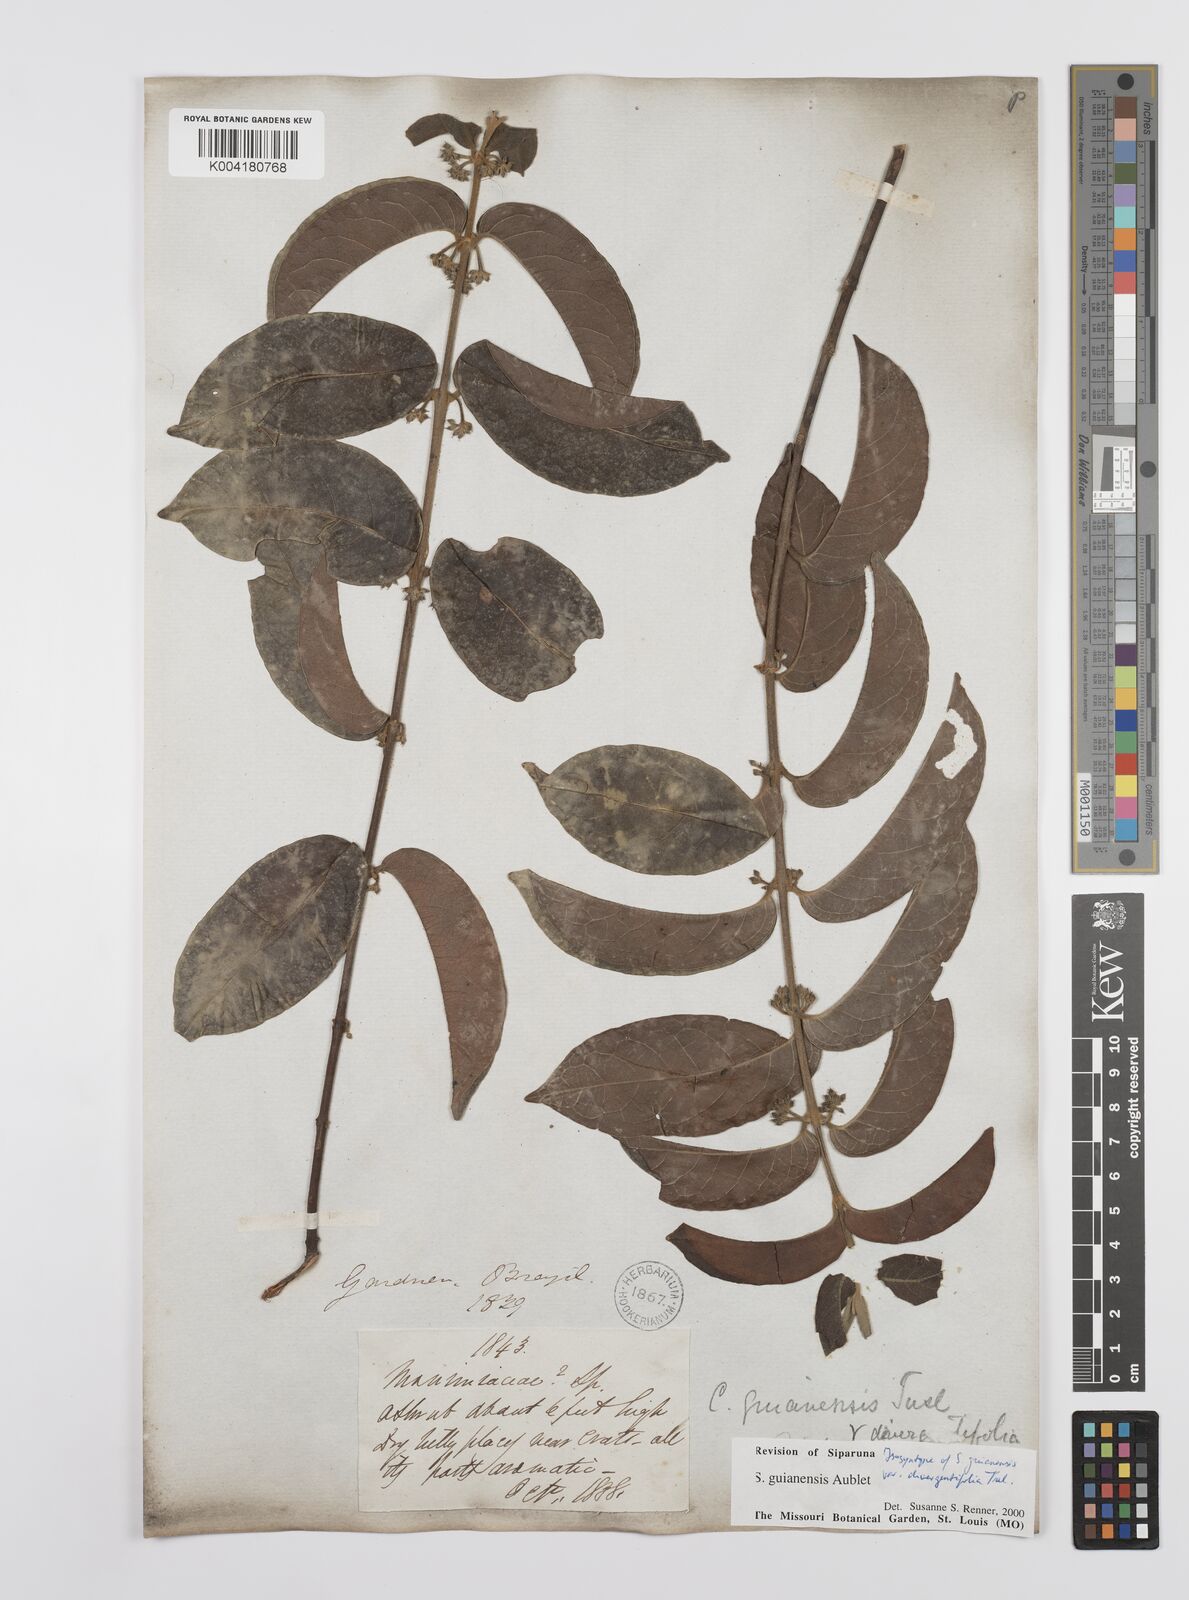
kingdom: Plantae
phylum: Tracheophyta
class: Magnoliopsida
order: Laurales
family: Siparunaceae
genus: Siparuna
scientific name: Siparuna guianensis
